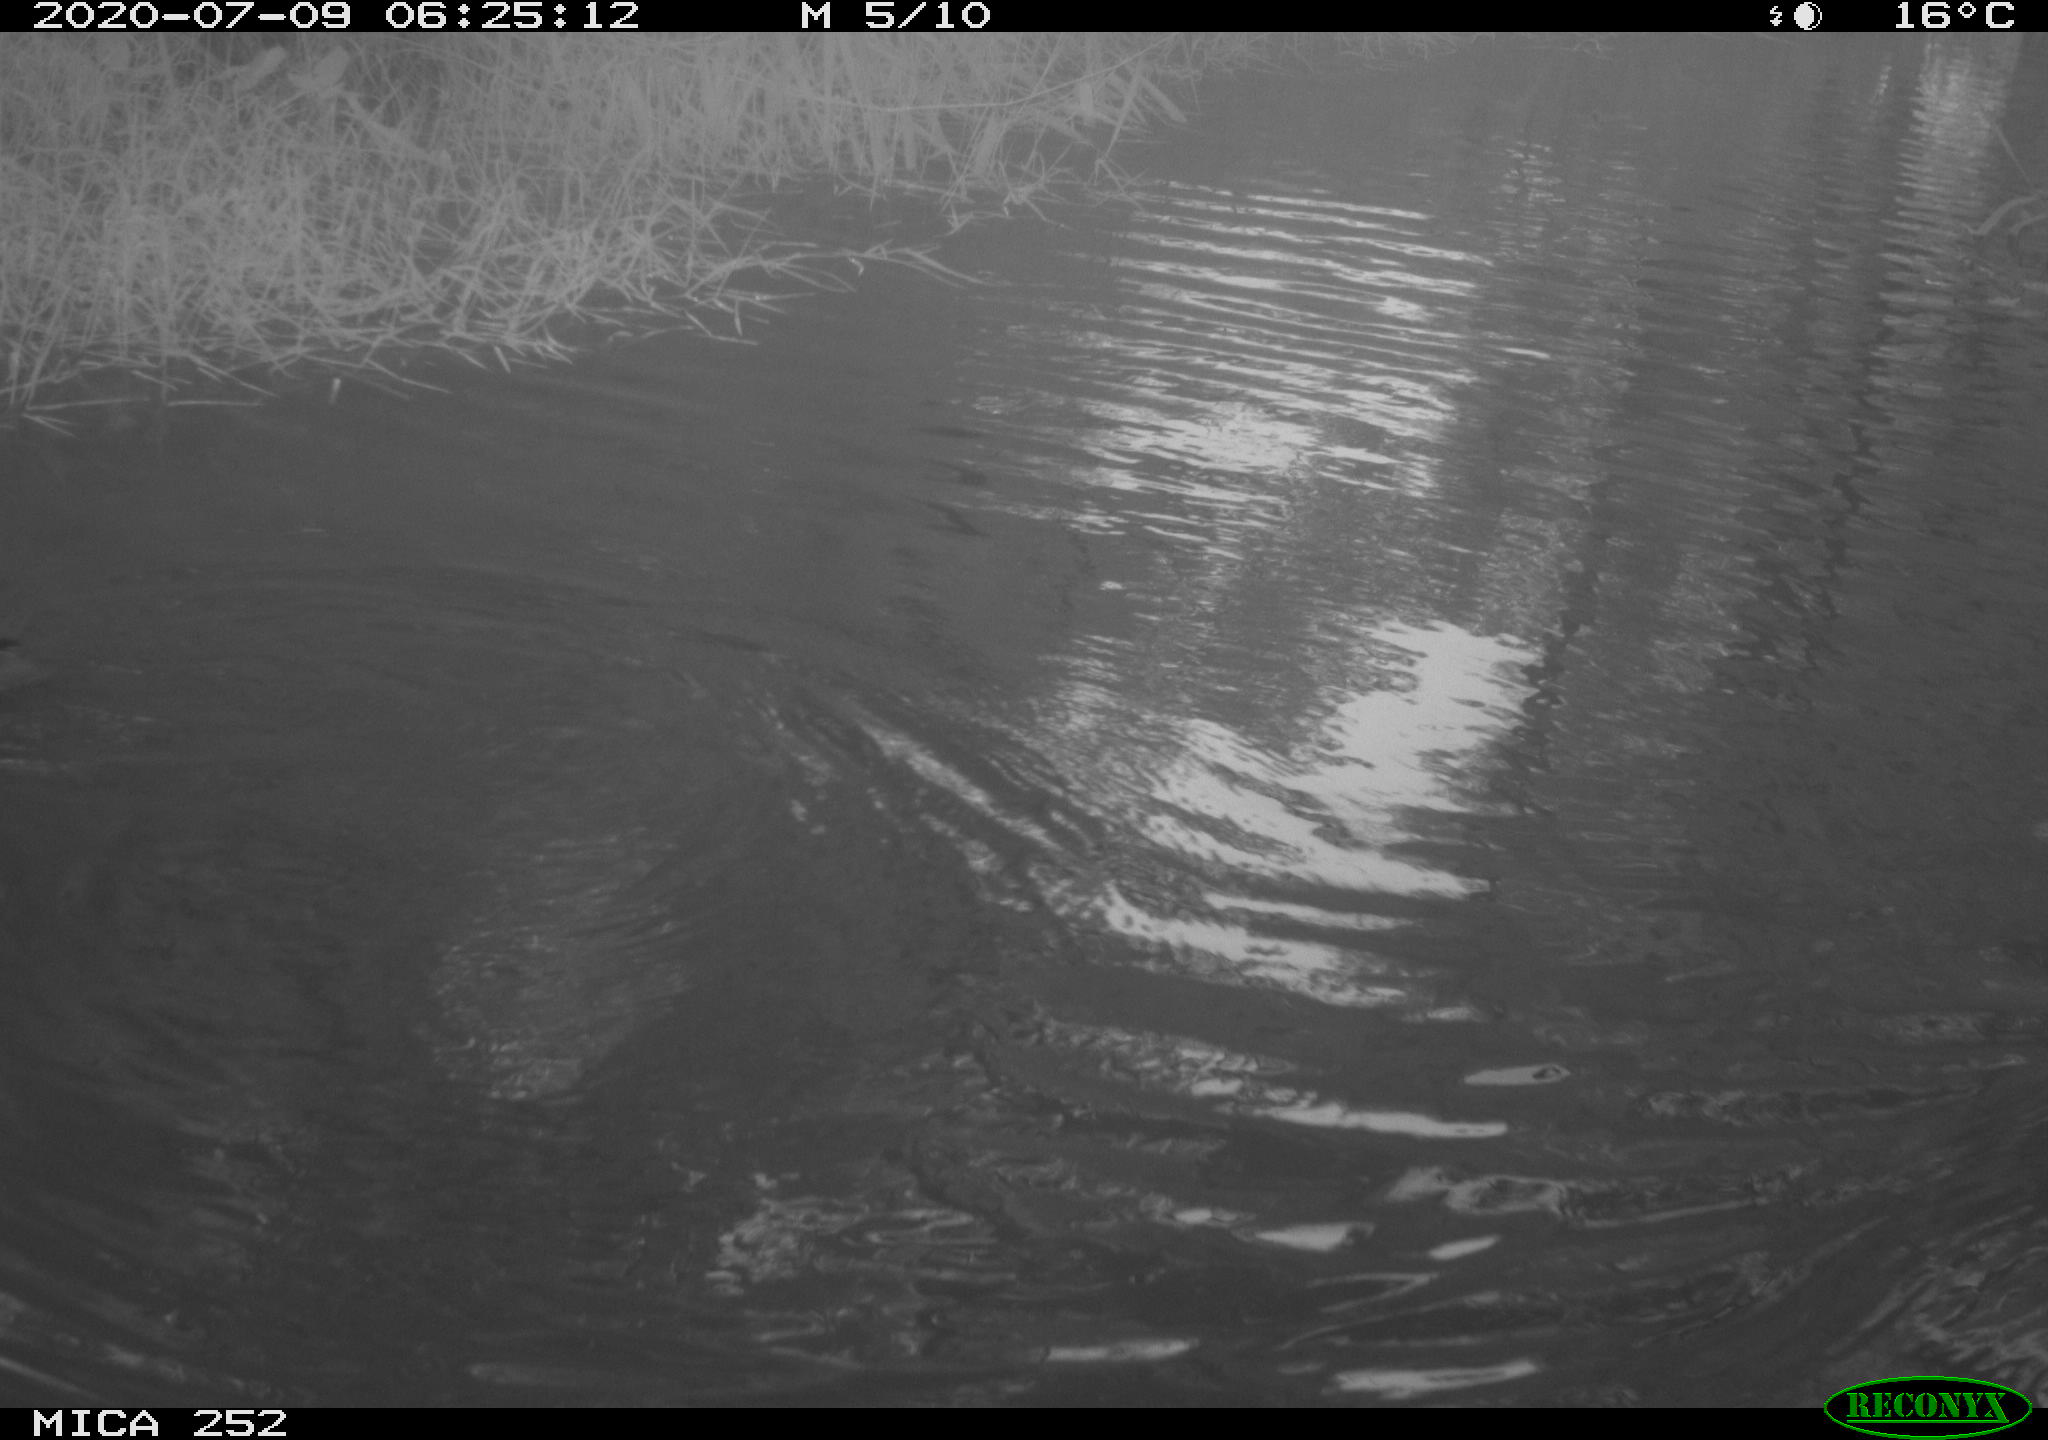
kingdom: Animalia
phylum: Chordata
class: Aves
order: Anseriformes
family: Anatidae
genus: Aix
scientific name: Aix galericulata
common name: Mandarin duck
